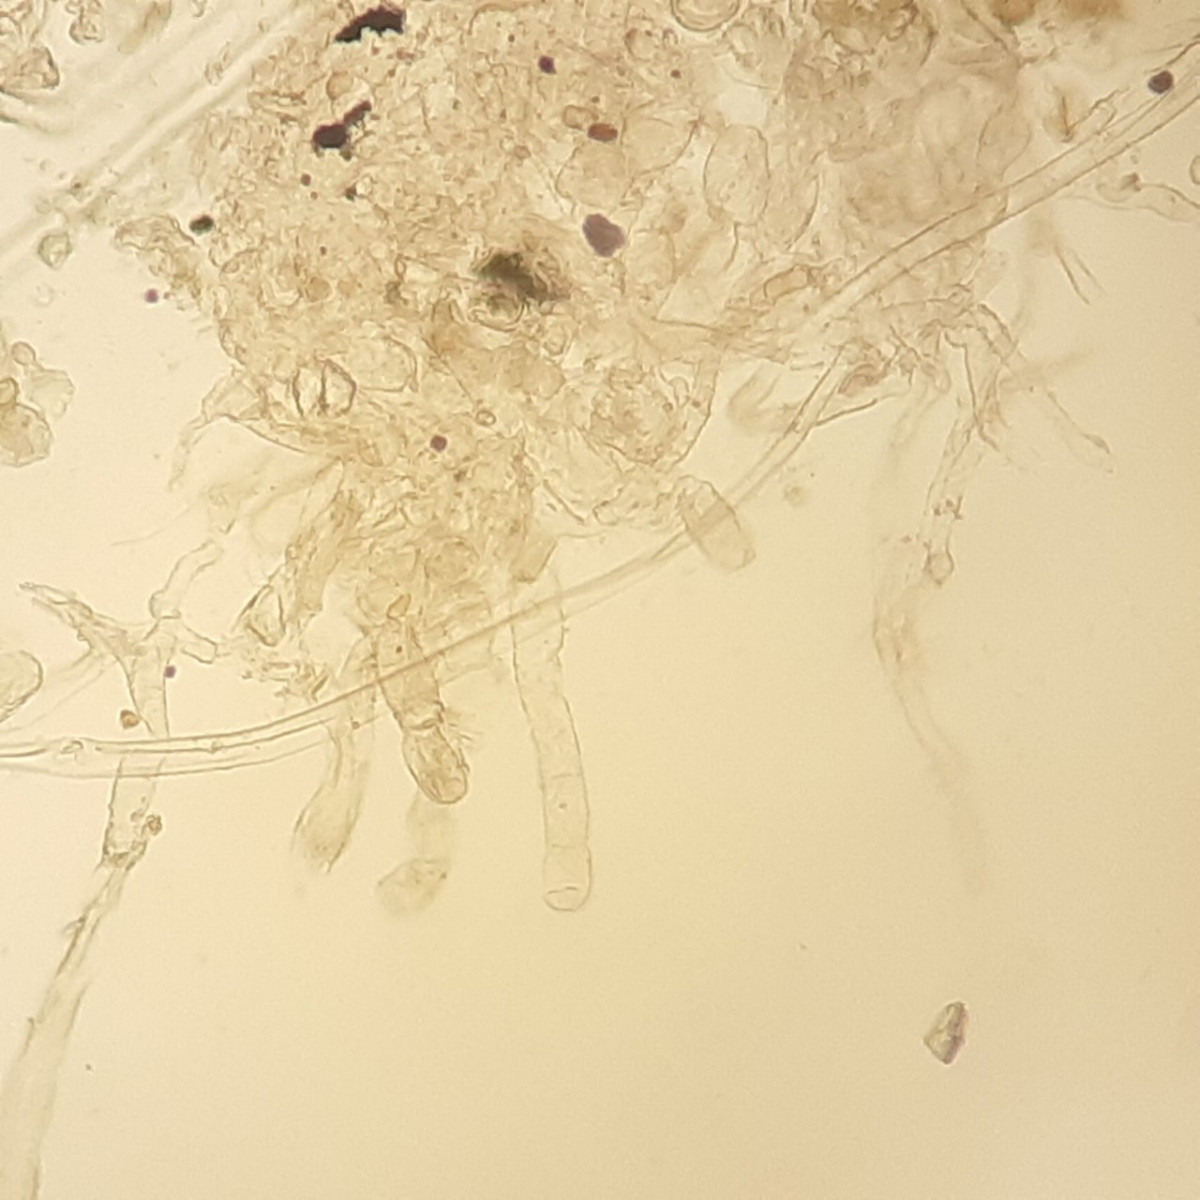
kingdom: Fungi
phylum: Ascomycota
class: Leotiomycetes
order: Helotiales
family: Erysiphaceae
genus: Golovinomyces
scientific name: Golovinomyces artemisiae
